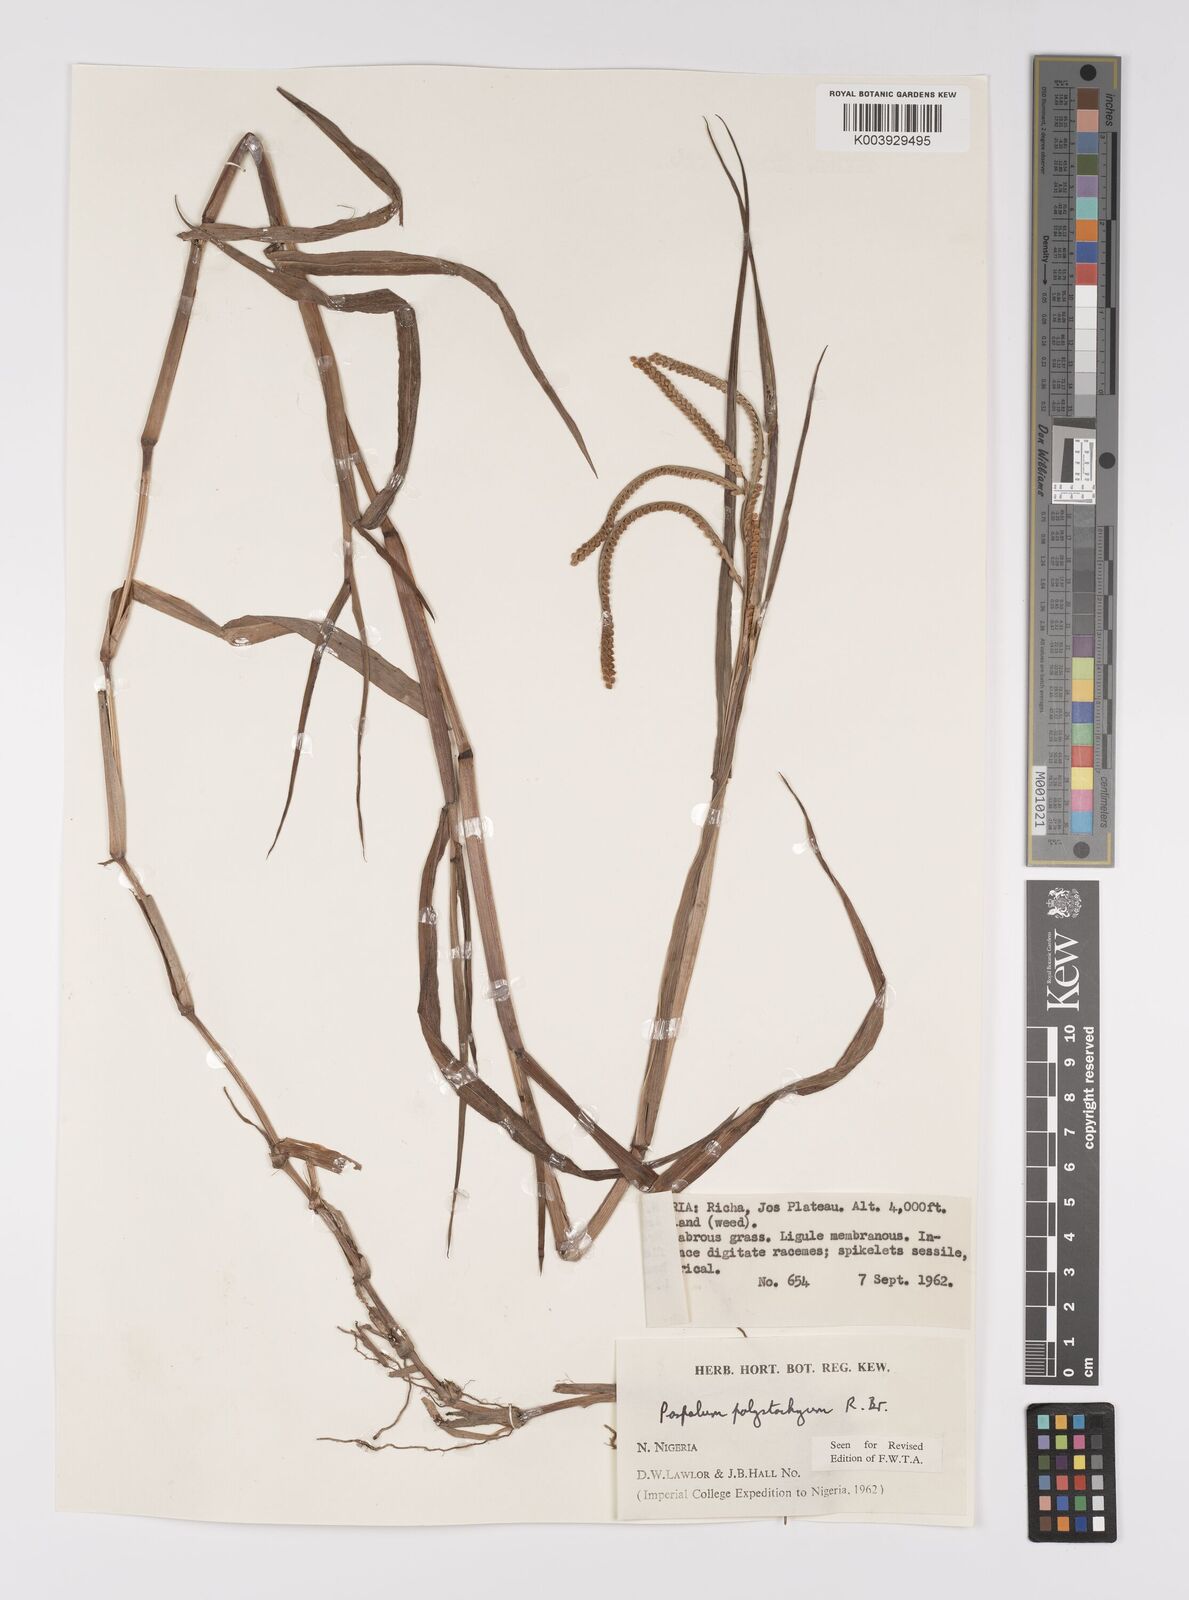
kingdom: Plantae
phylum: Tracheophyta
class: Liliopsida
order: Poales
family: Poaceae
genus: Paspalum
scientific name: Paspalum scrobiculatum
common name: Kodo millet
